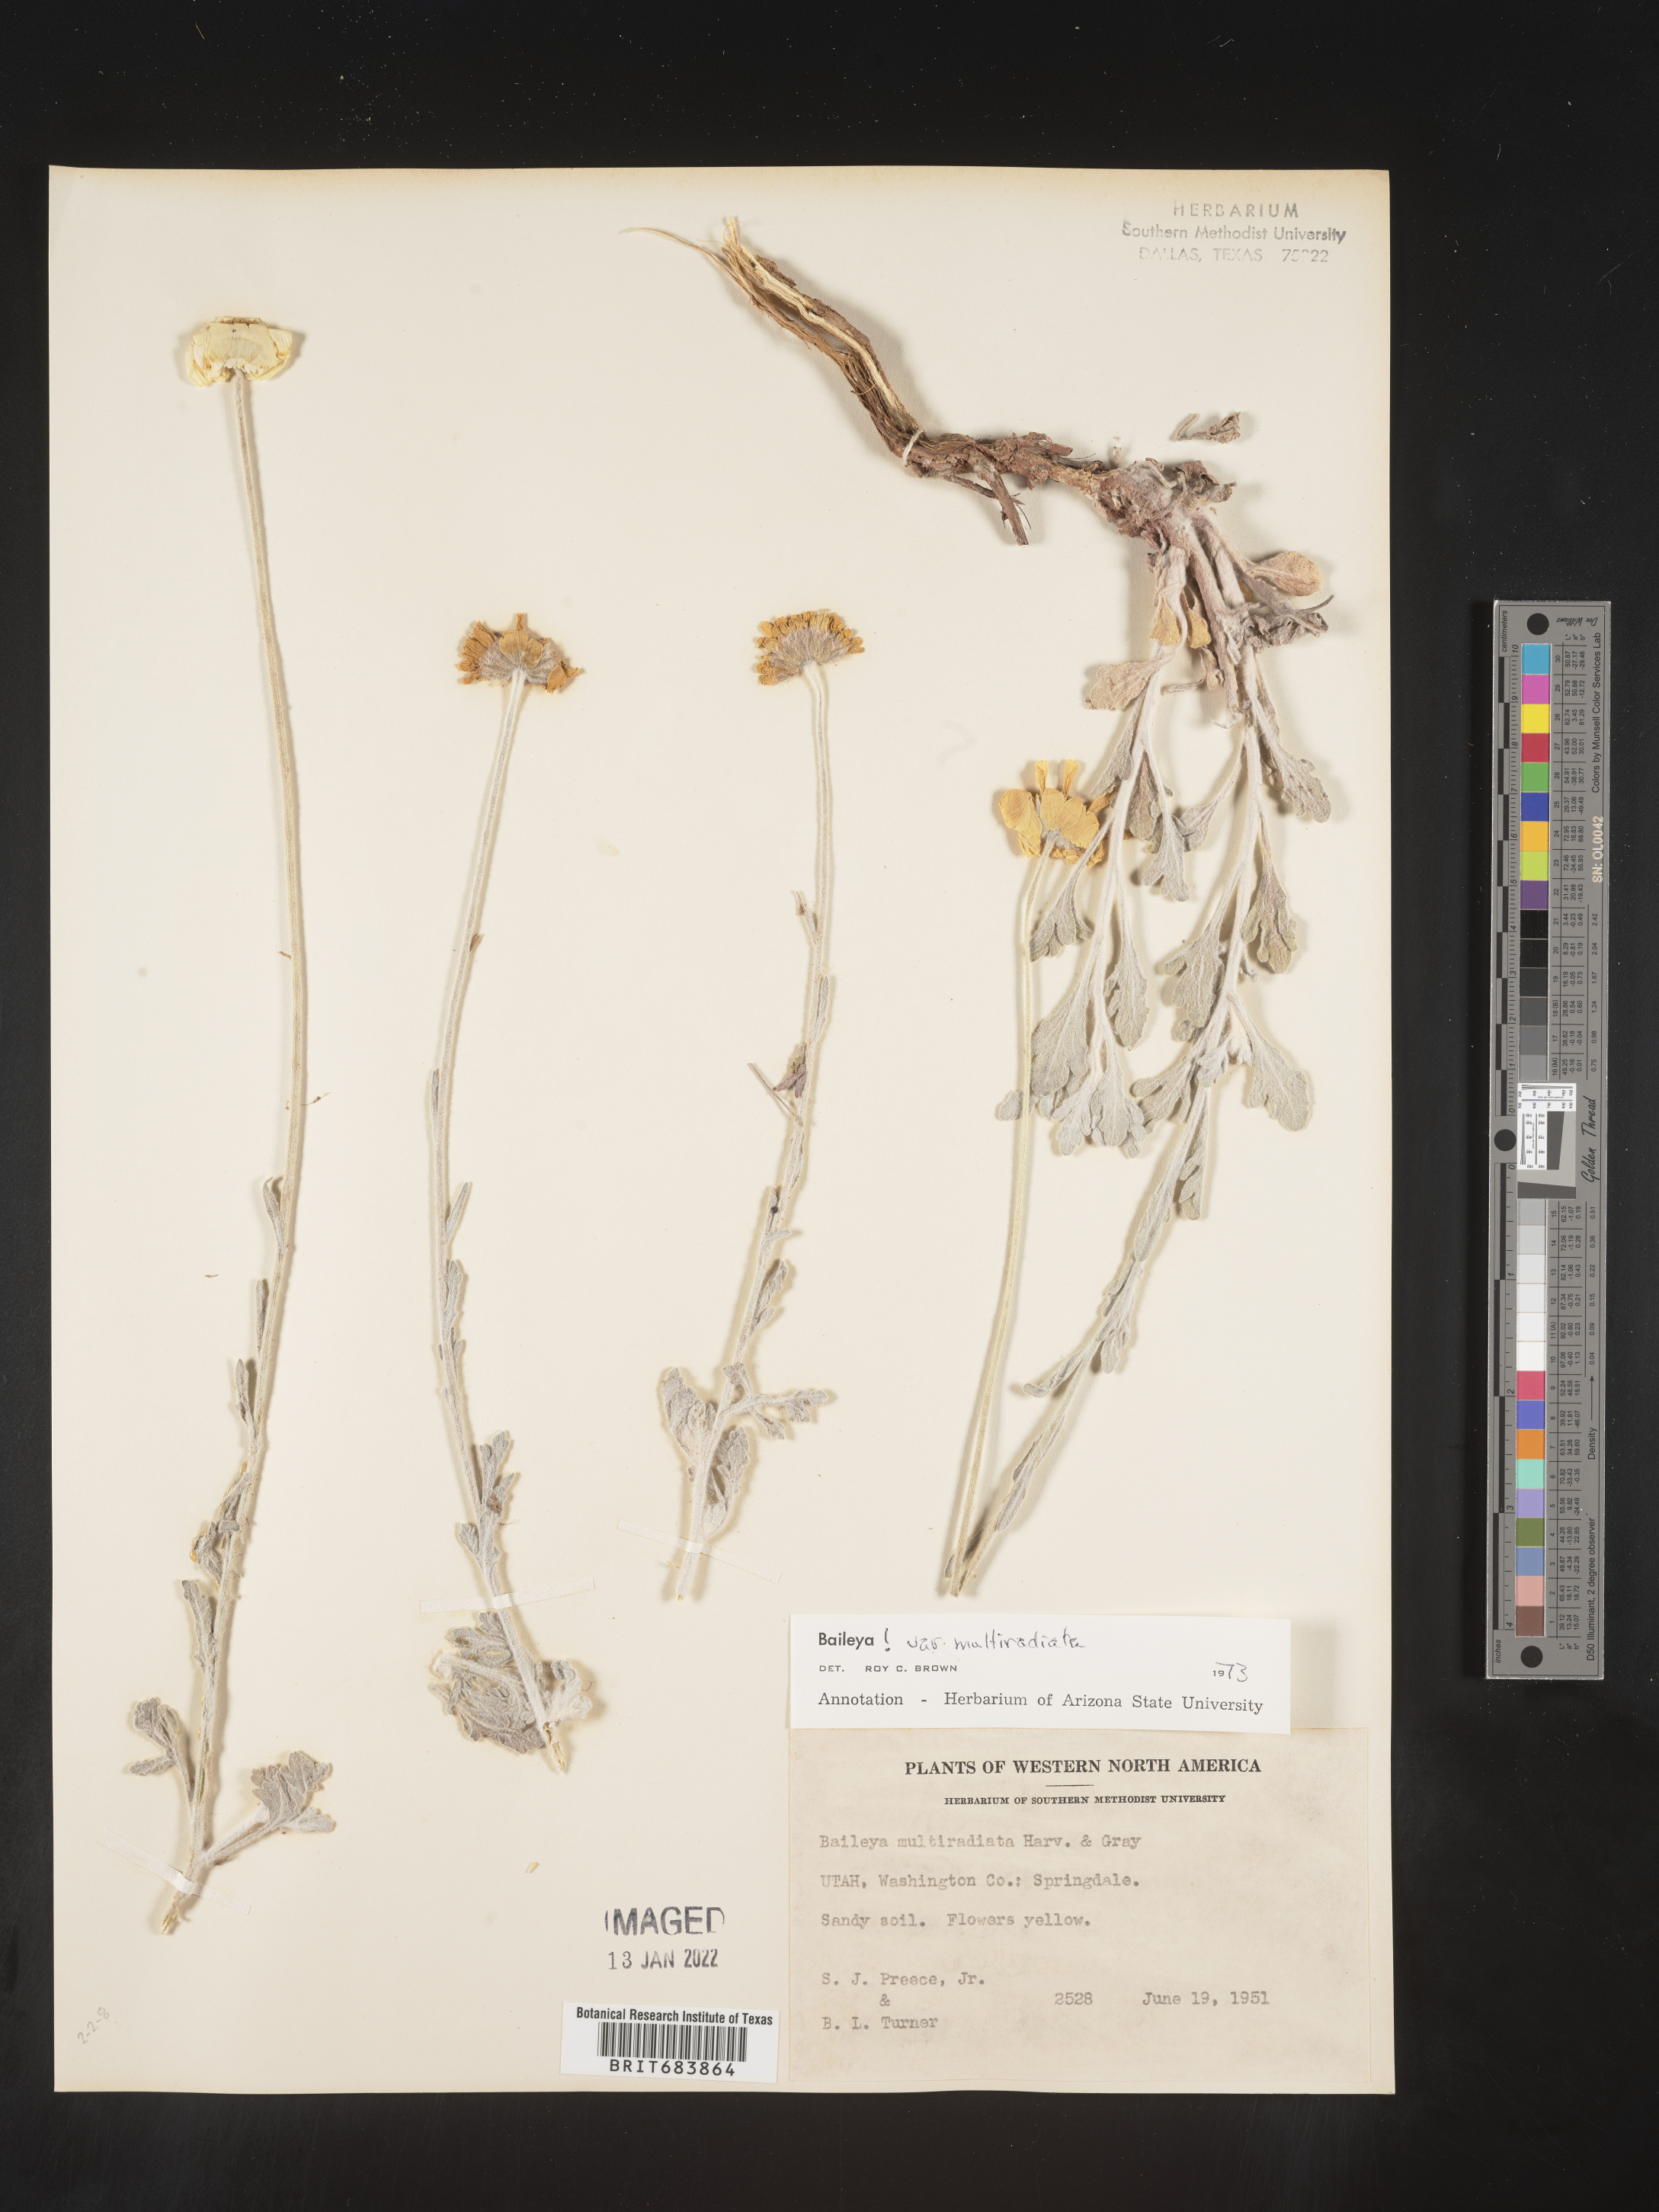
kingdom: Plantae
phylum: Tracheophyta
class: Magnoliopsida
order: Asterales
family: Asteraceae
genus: Baileya
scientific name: Baileya multiradiata
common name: Desert-marigold
